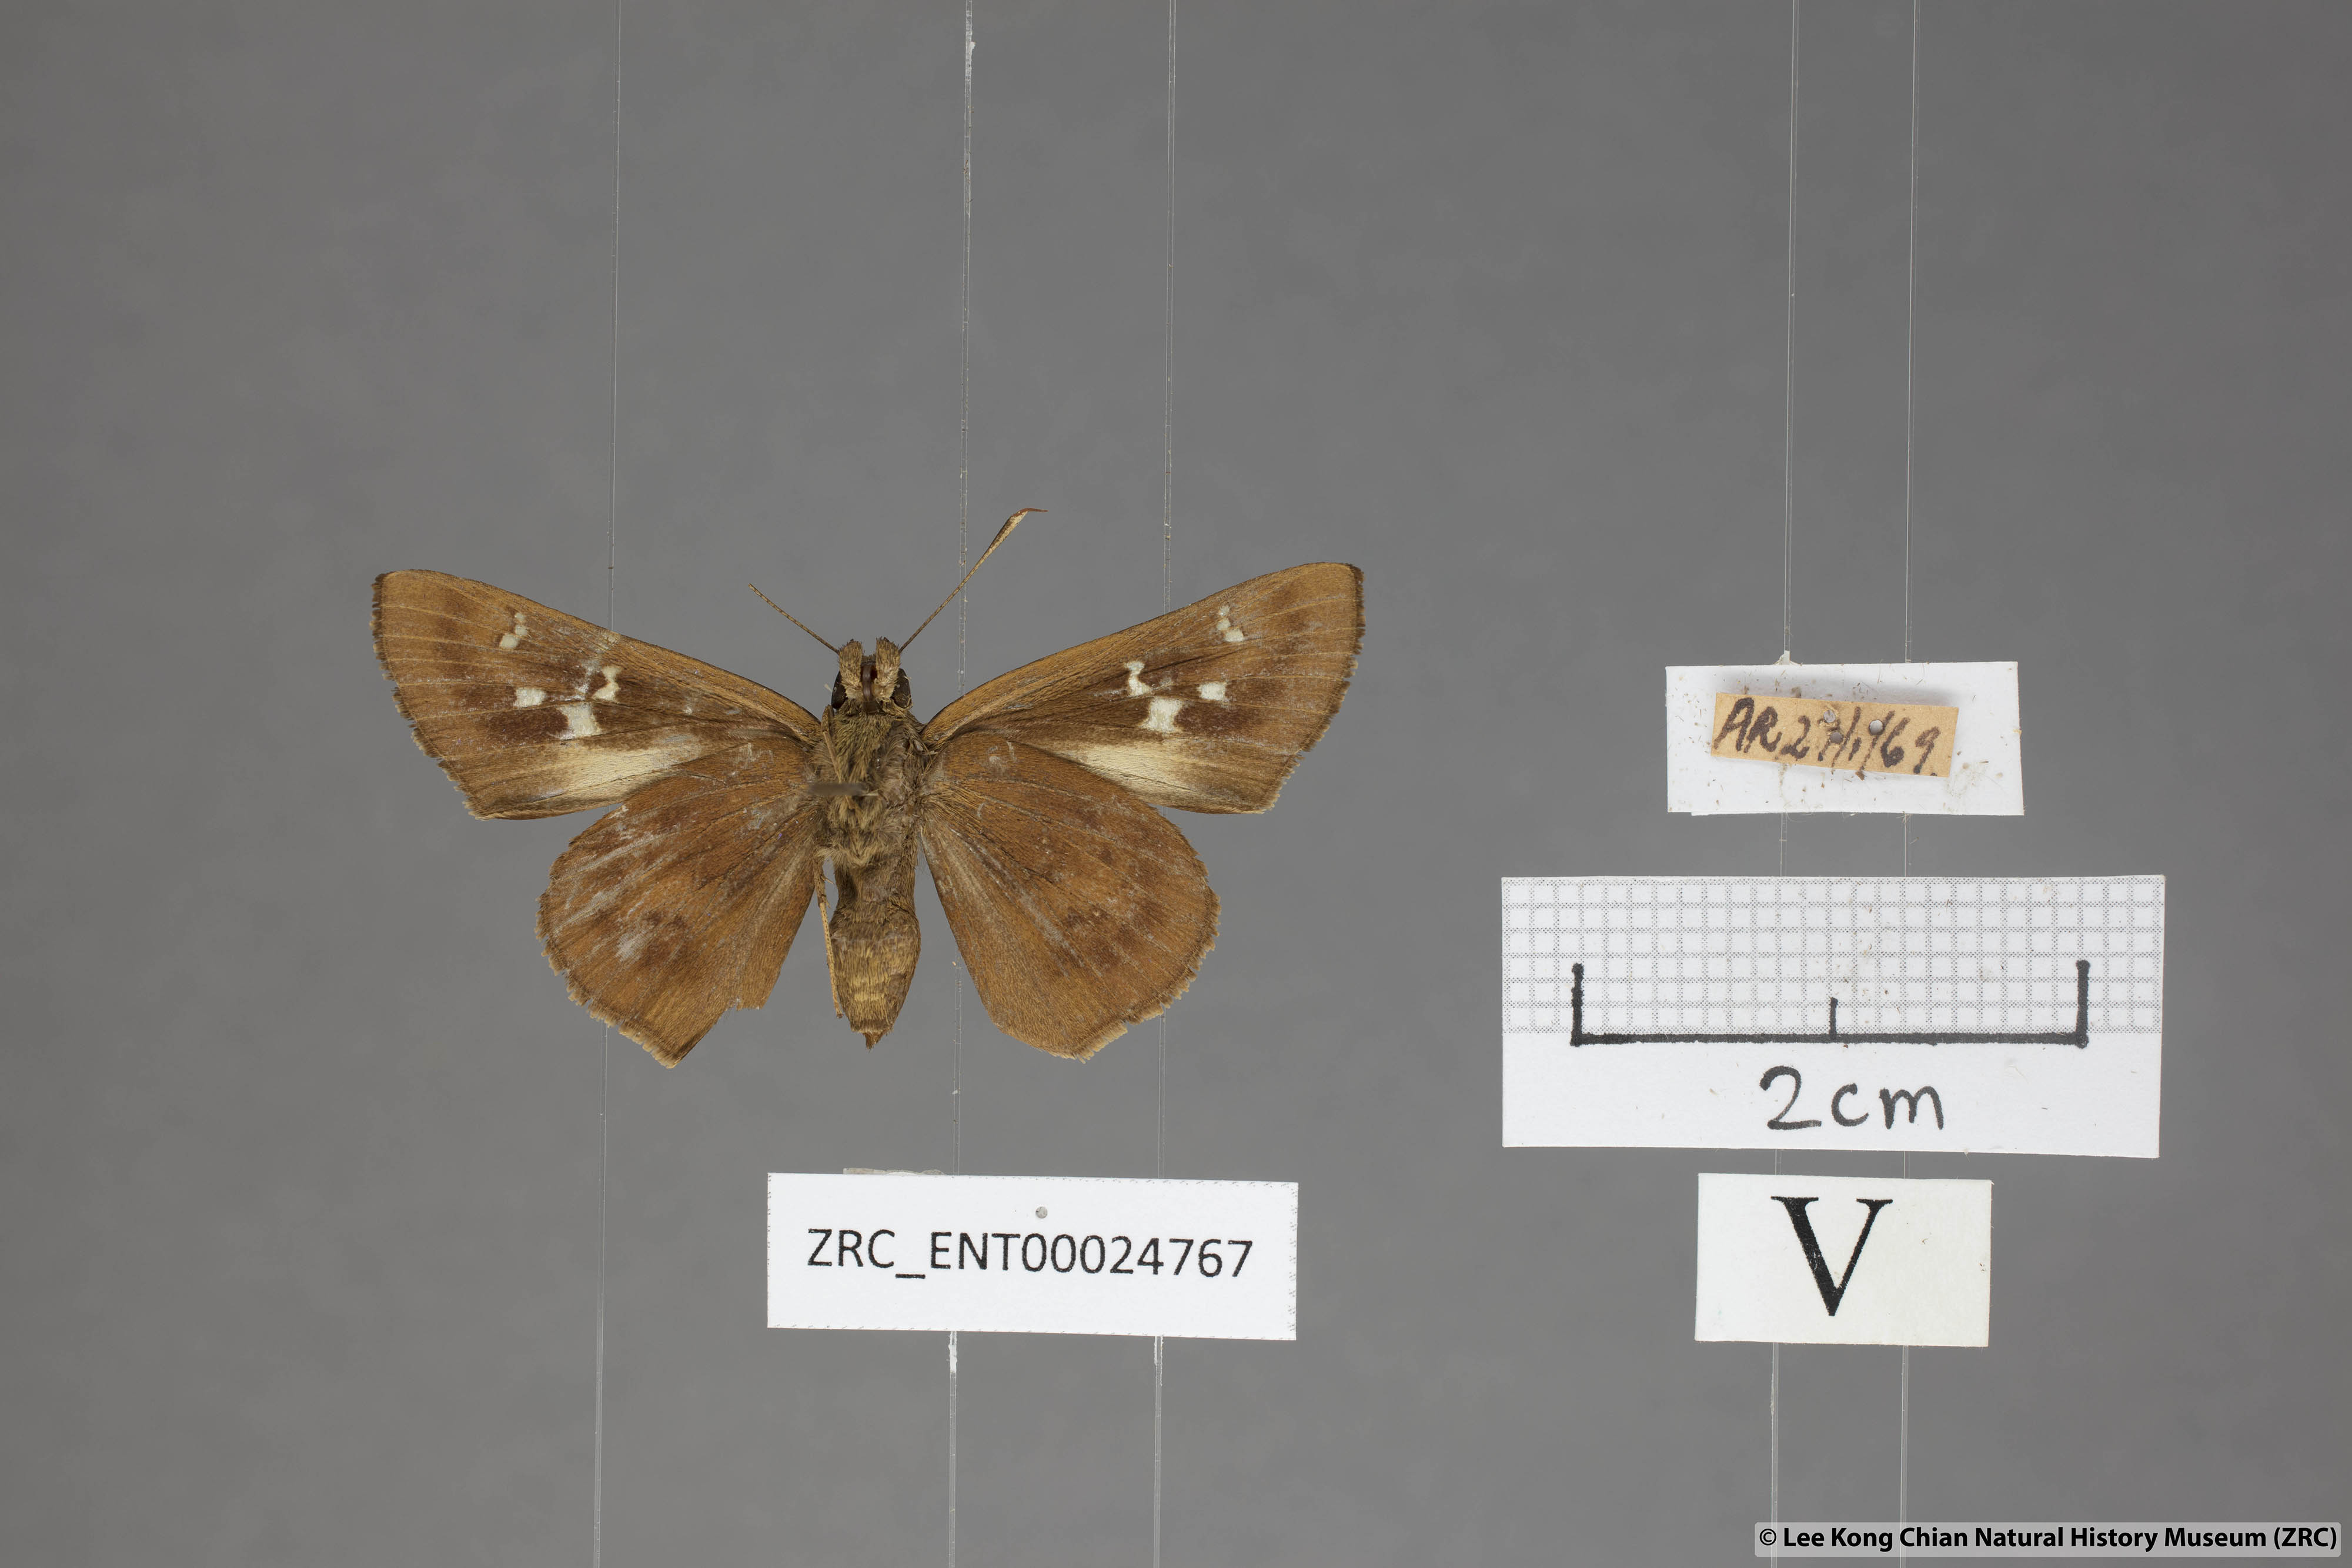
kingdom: Animalia
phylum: Arthropoda
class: Insecta
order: Lepidoptera
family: Hesperiidae
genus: Hyarotis
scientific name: Hyarotis microstictum
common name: Small brush flitter
